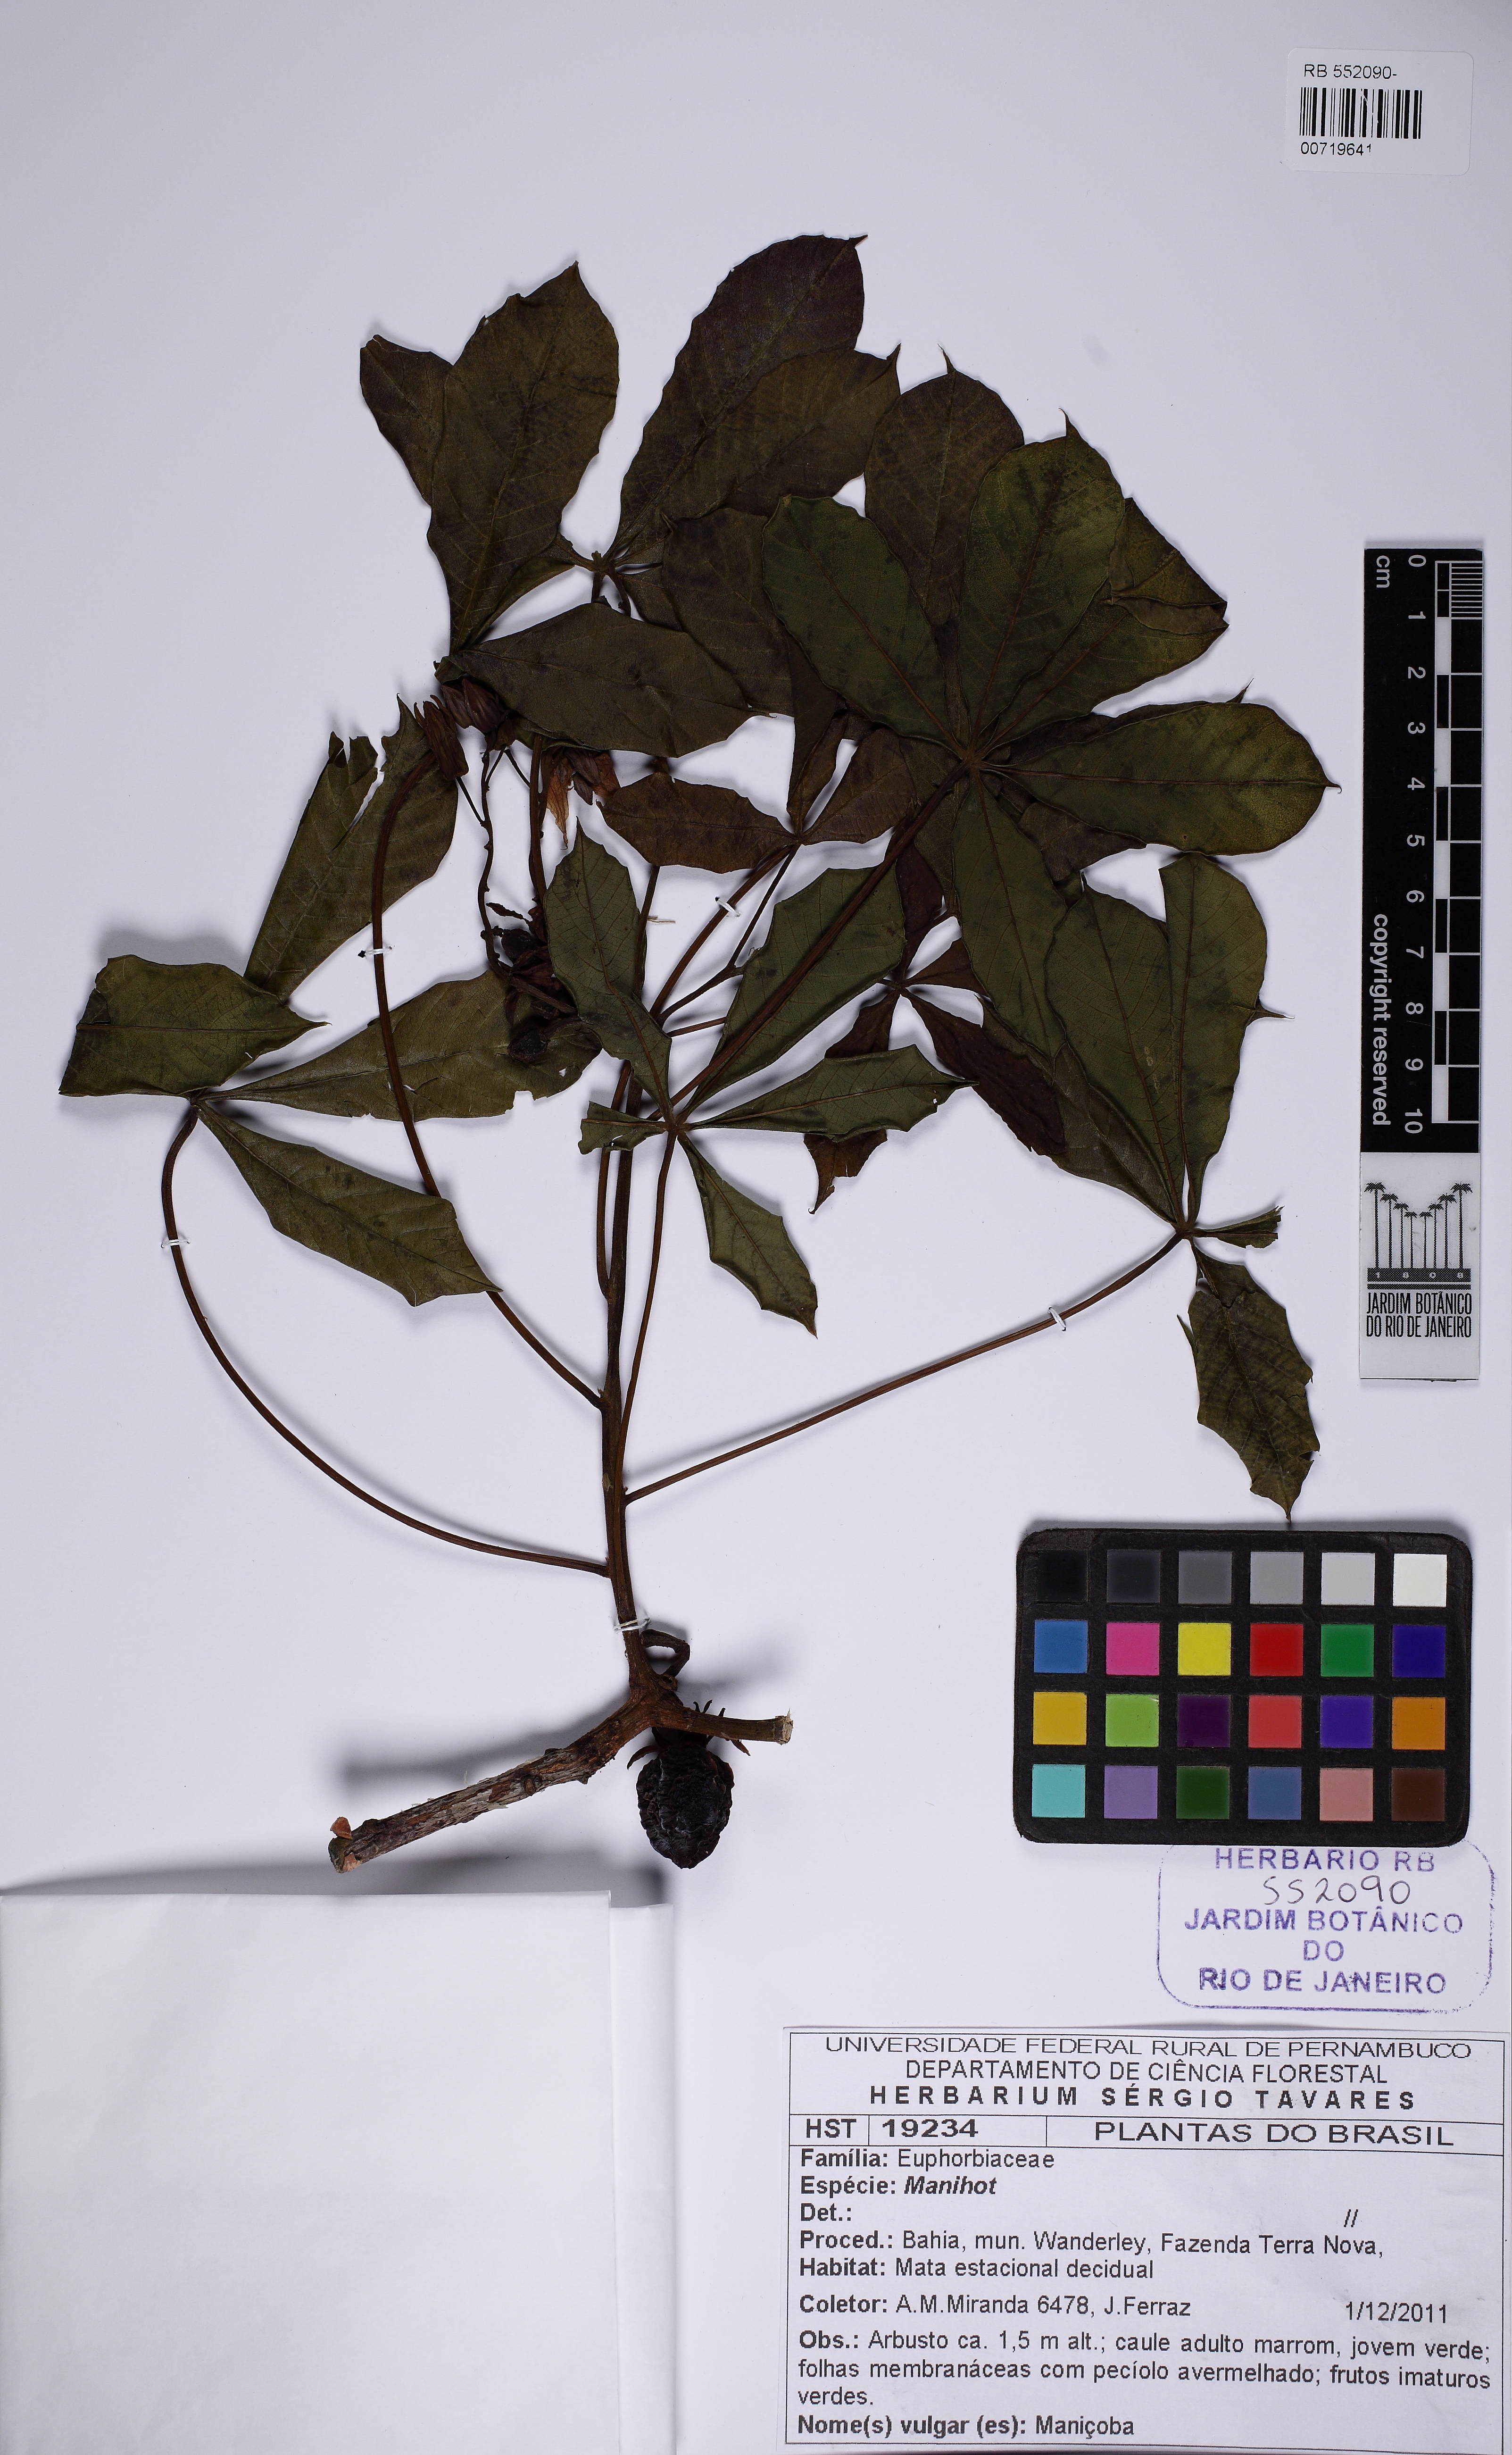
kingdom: Plantae
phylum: Tracheophyta
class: Magnoliopsida
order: Malpighiales
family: Euphorbiaceae
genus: Manihot
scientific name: Manihot caerulescens
